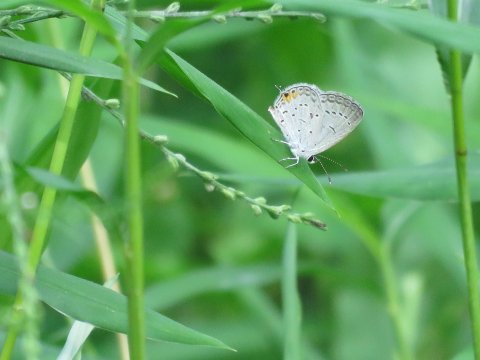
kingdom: Animalia
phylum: Arthropoda
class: Insecta
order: Lepidoptera
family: Lycaenidae
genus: Elkalyce
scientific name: Elkalyce comyntas
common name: Eastern Tailed-Blue
